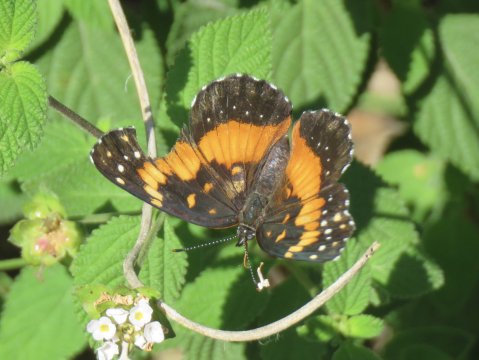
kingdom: Animalia
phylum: Arthropoda
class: Insecta
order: Lepidoptera
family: Nymphalidae
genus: Chlosyne
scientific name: Chlosyne lacinia
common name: Bordered Patch
